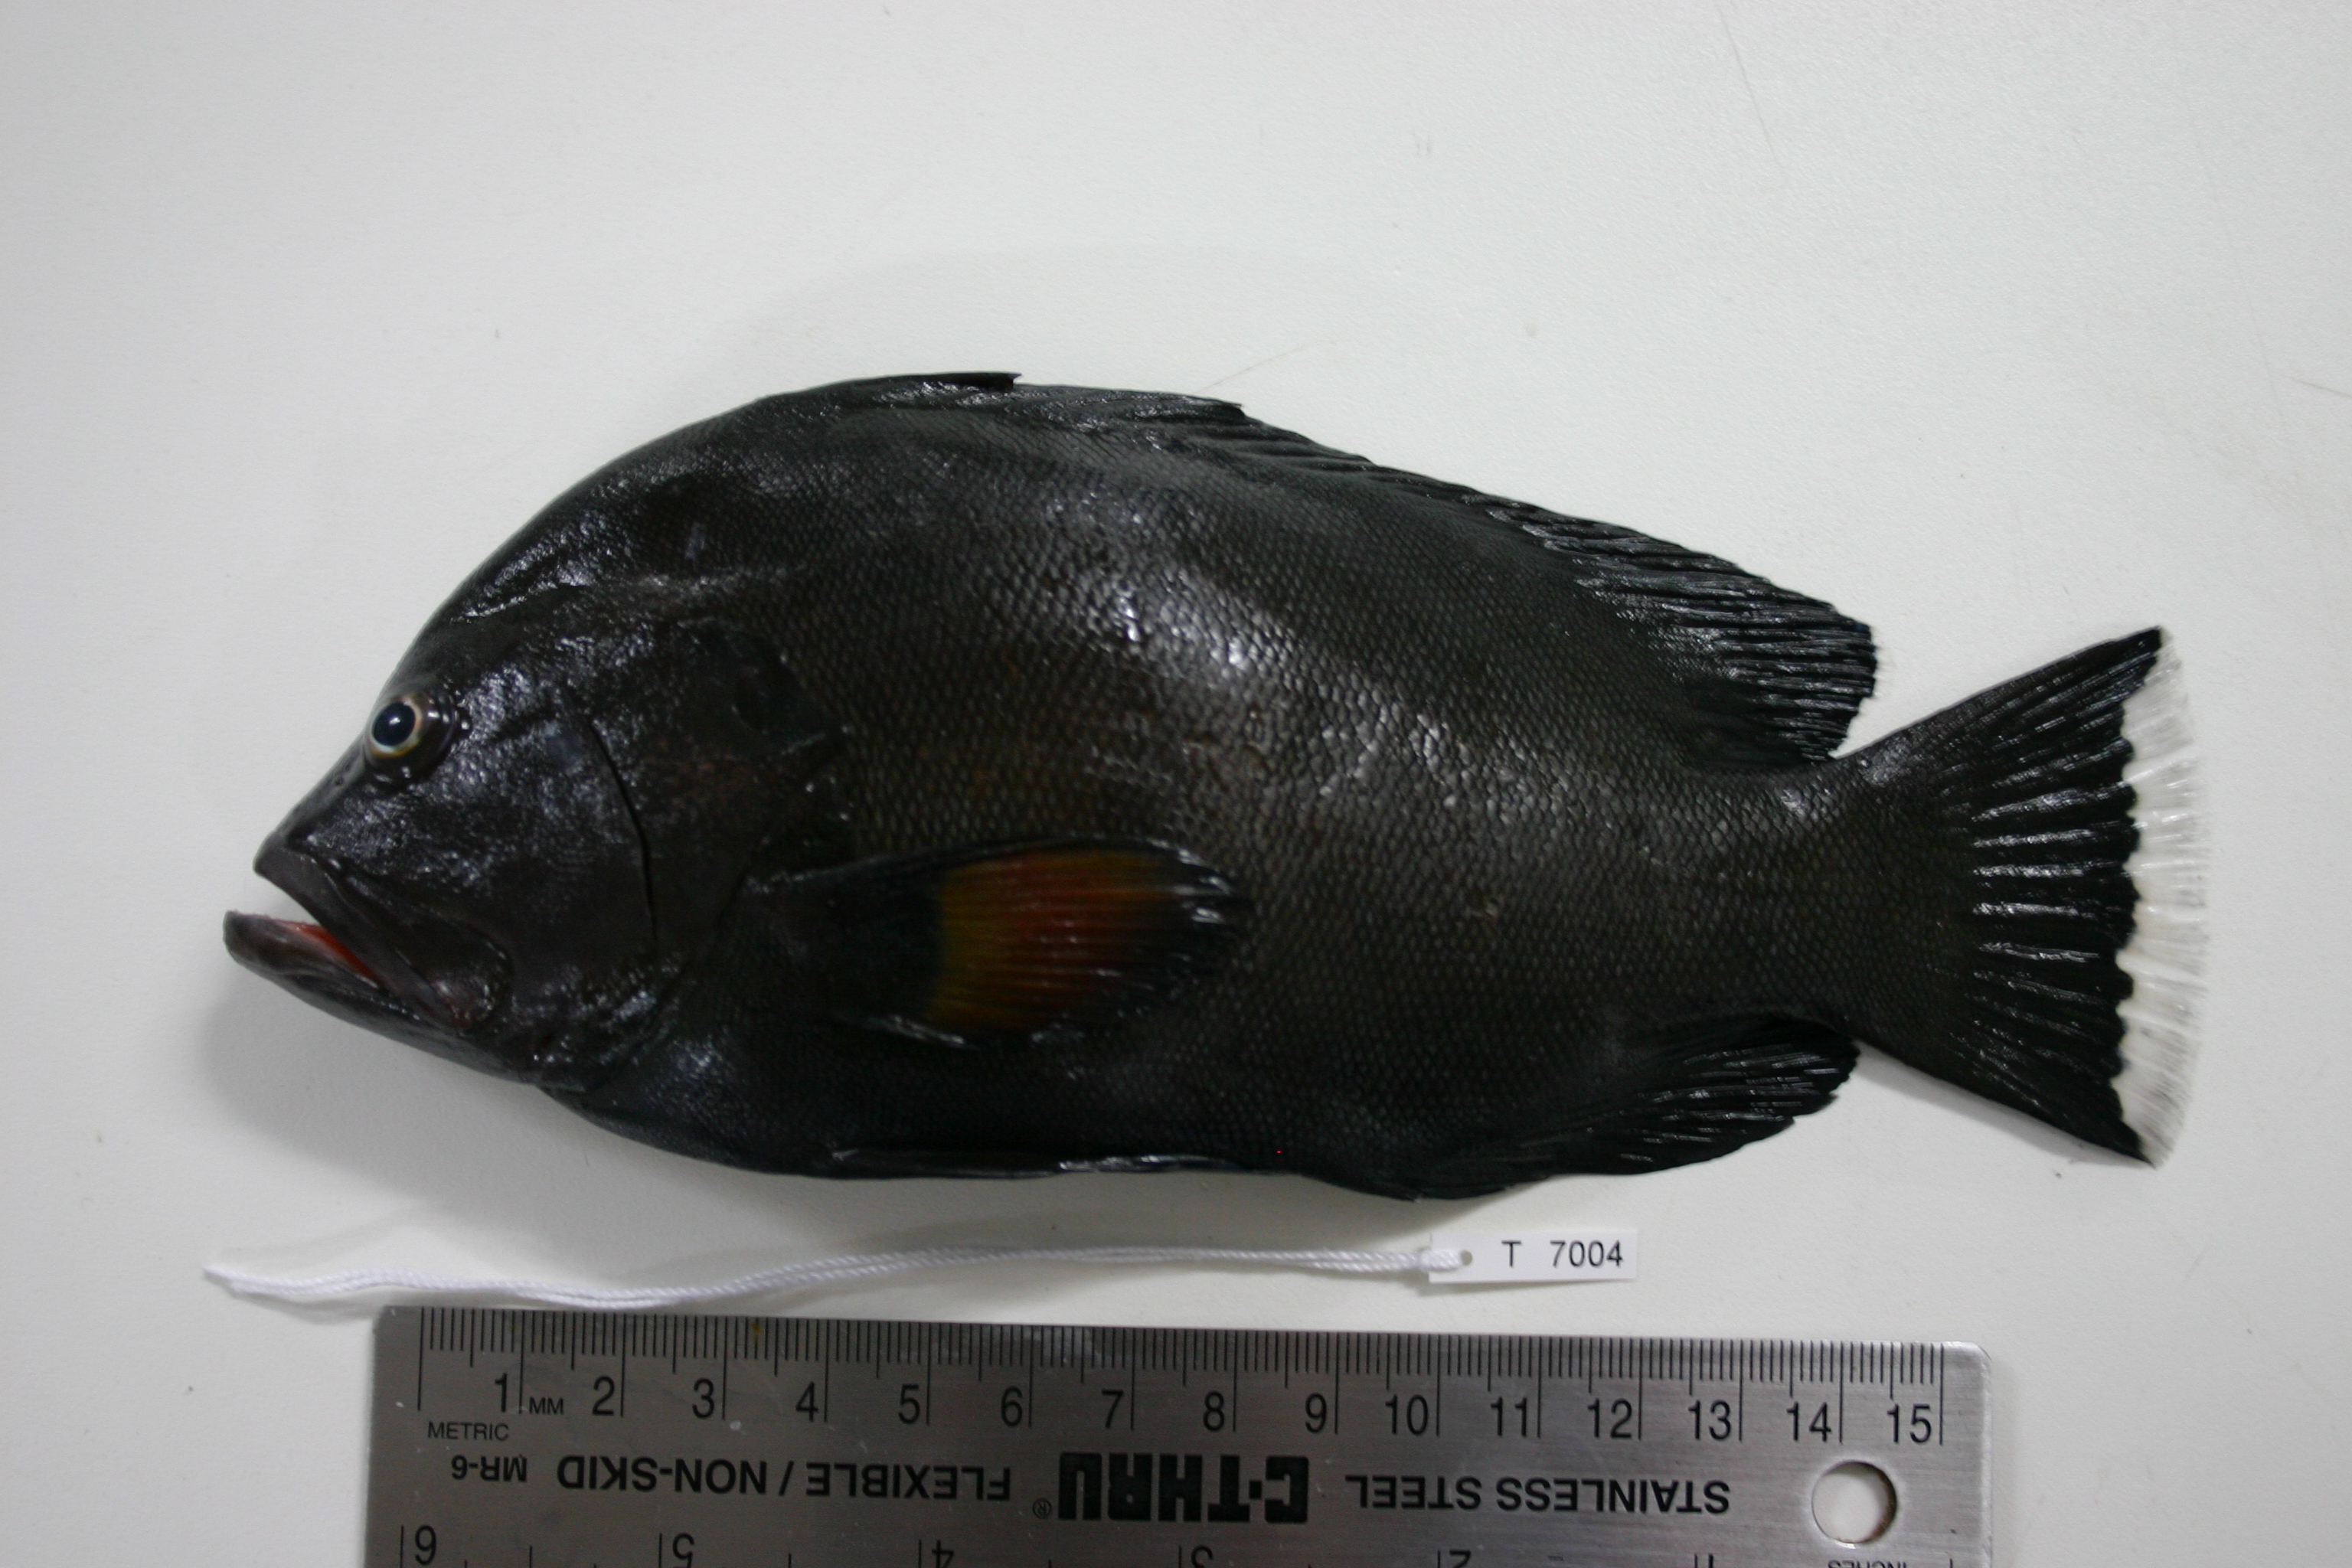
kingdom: Animalia
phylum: Chordata
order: Perciformes
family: Serranidae
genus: Aethaloperca
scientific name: Aethaloperca rogaa
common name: Redmouth grouper
